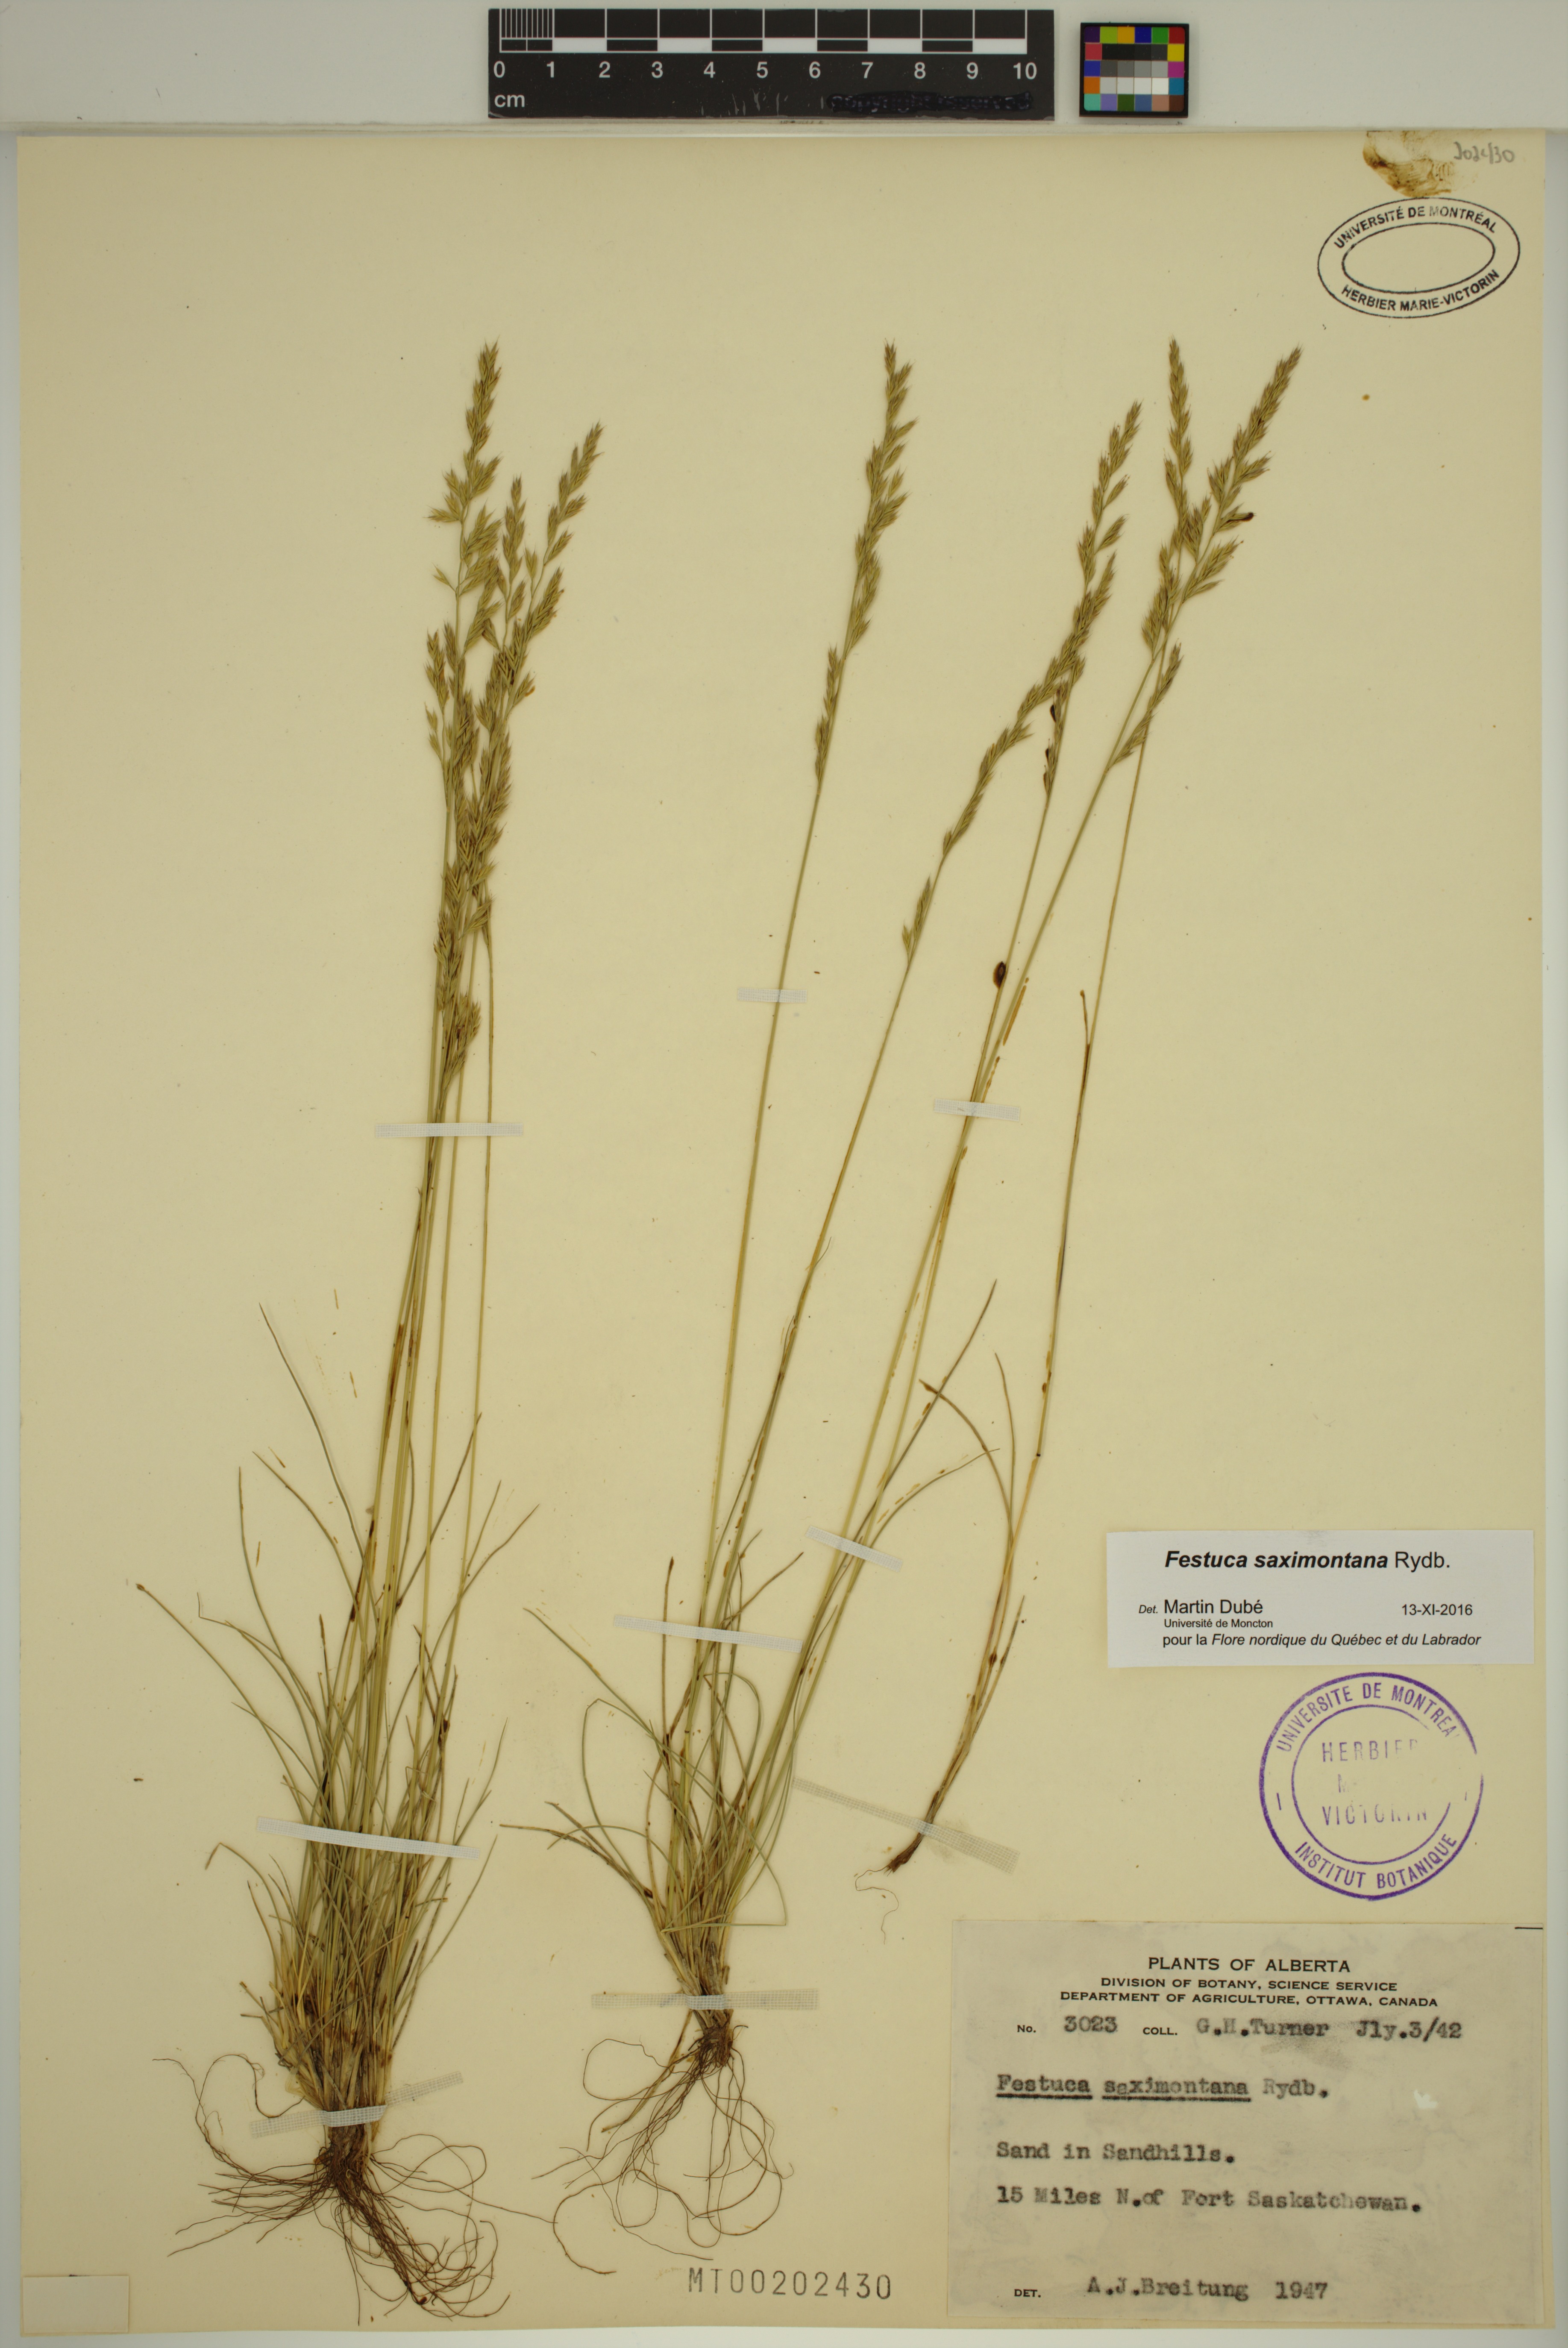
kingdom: Plantae
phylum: Tracheophyta
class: Liliopsida
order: Poales
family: Poaceae
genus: Festuca
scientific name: Festuca saximontana
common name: Mountain fescue
